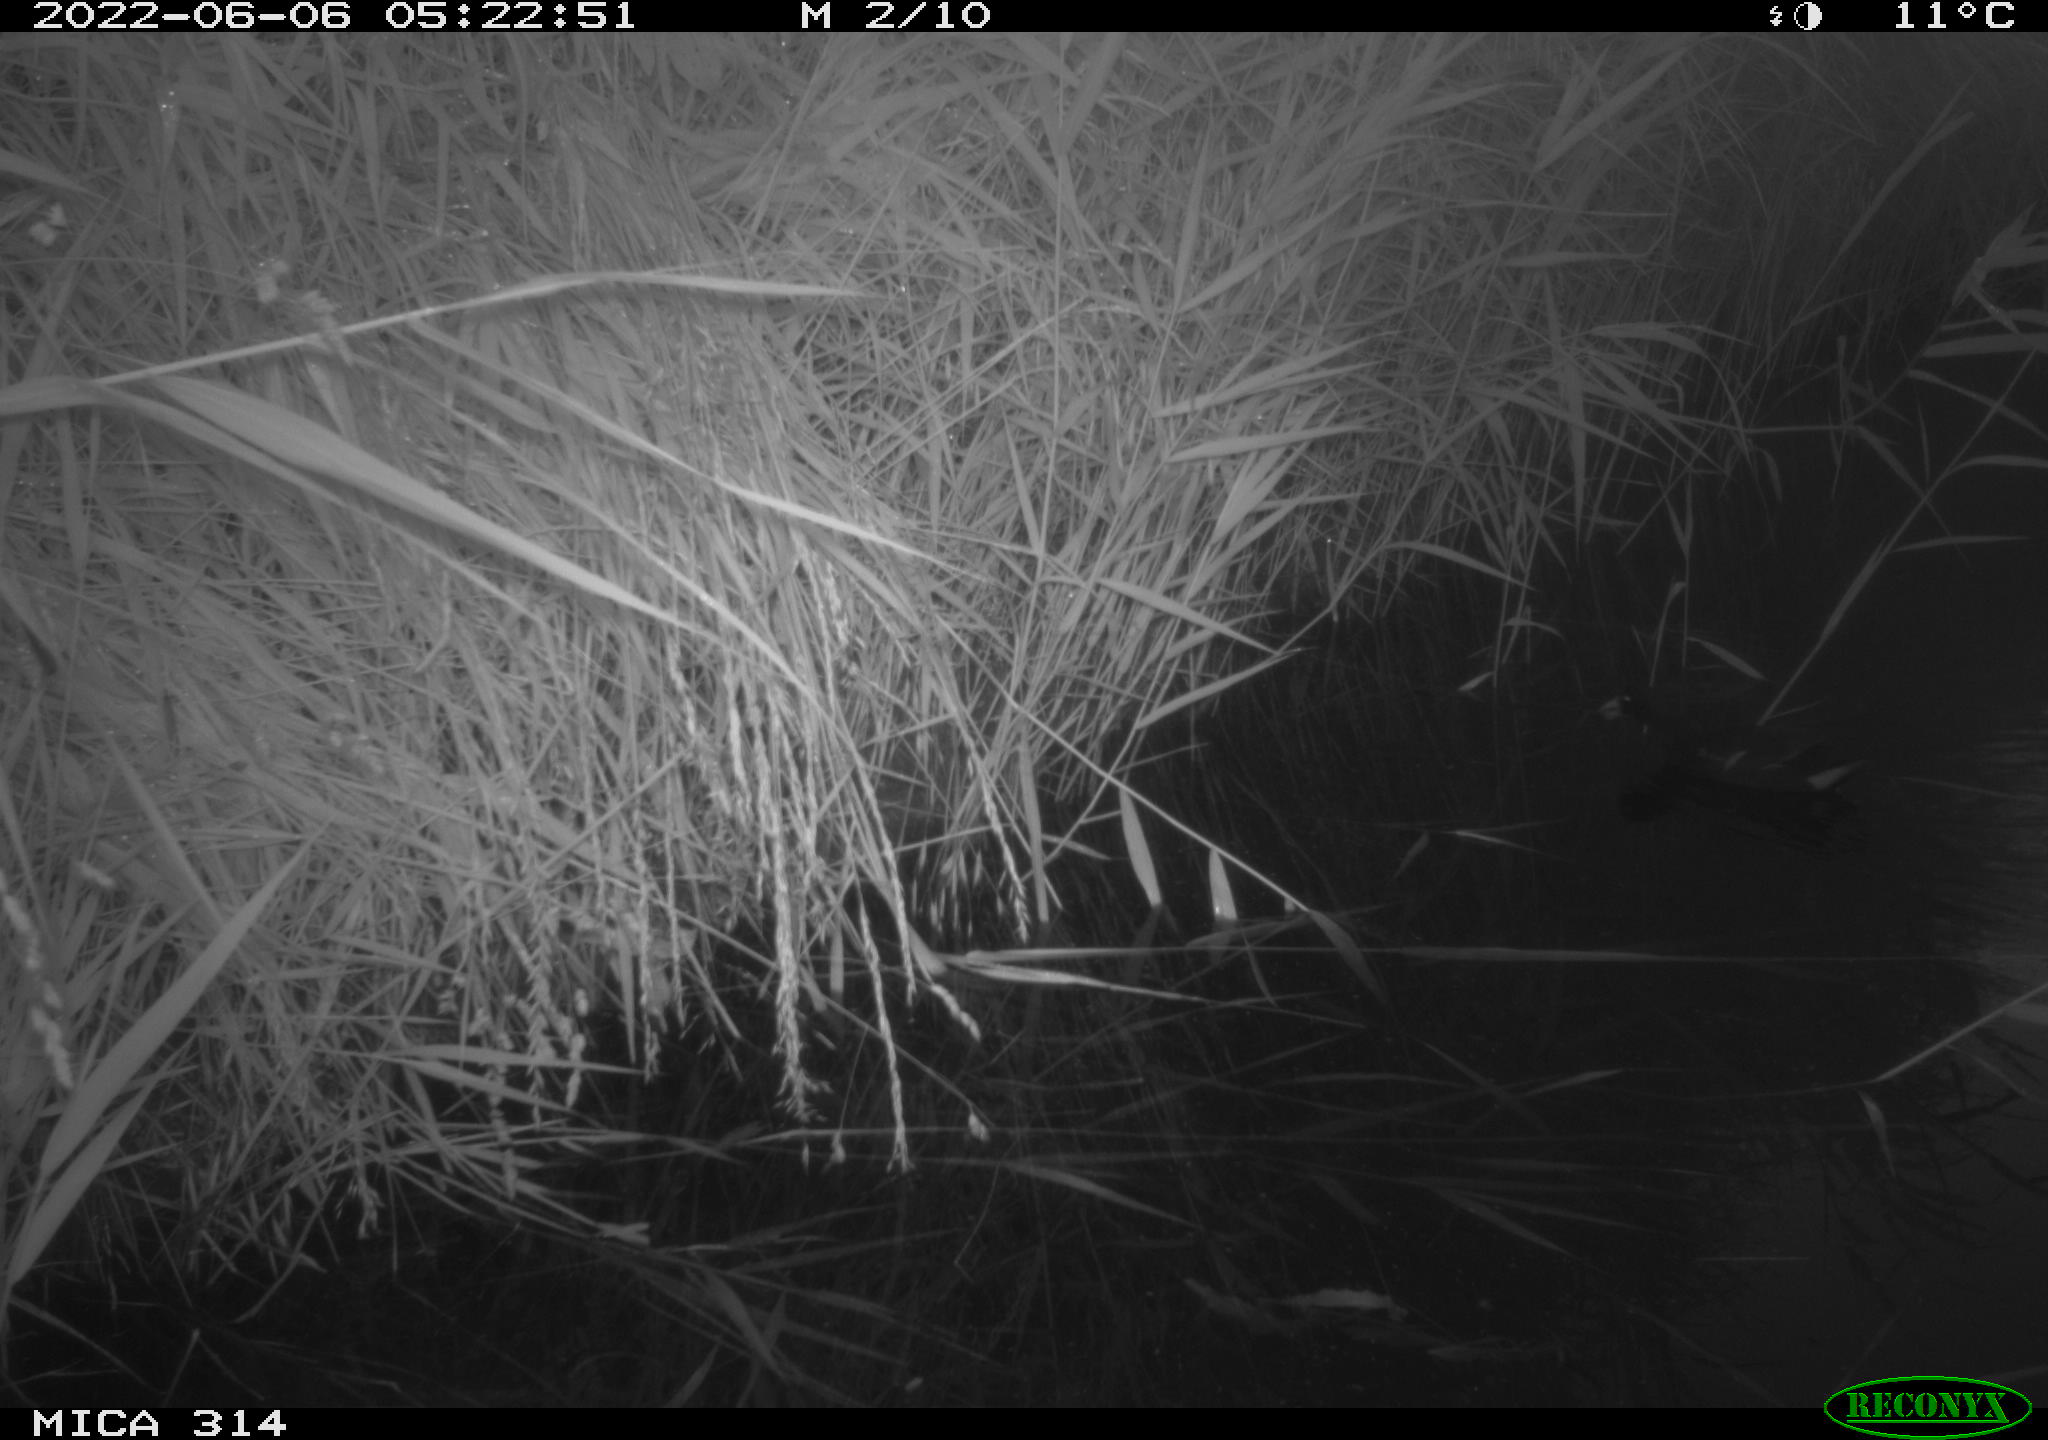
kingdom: Animalia
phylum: Chordata
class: Aves
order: Gruiformes
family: Rallidae
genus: Gallinula
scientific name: Gallinula chloropus
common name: Common moorhen
